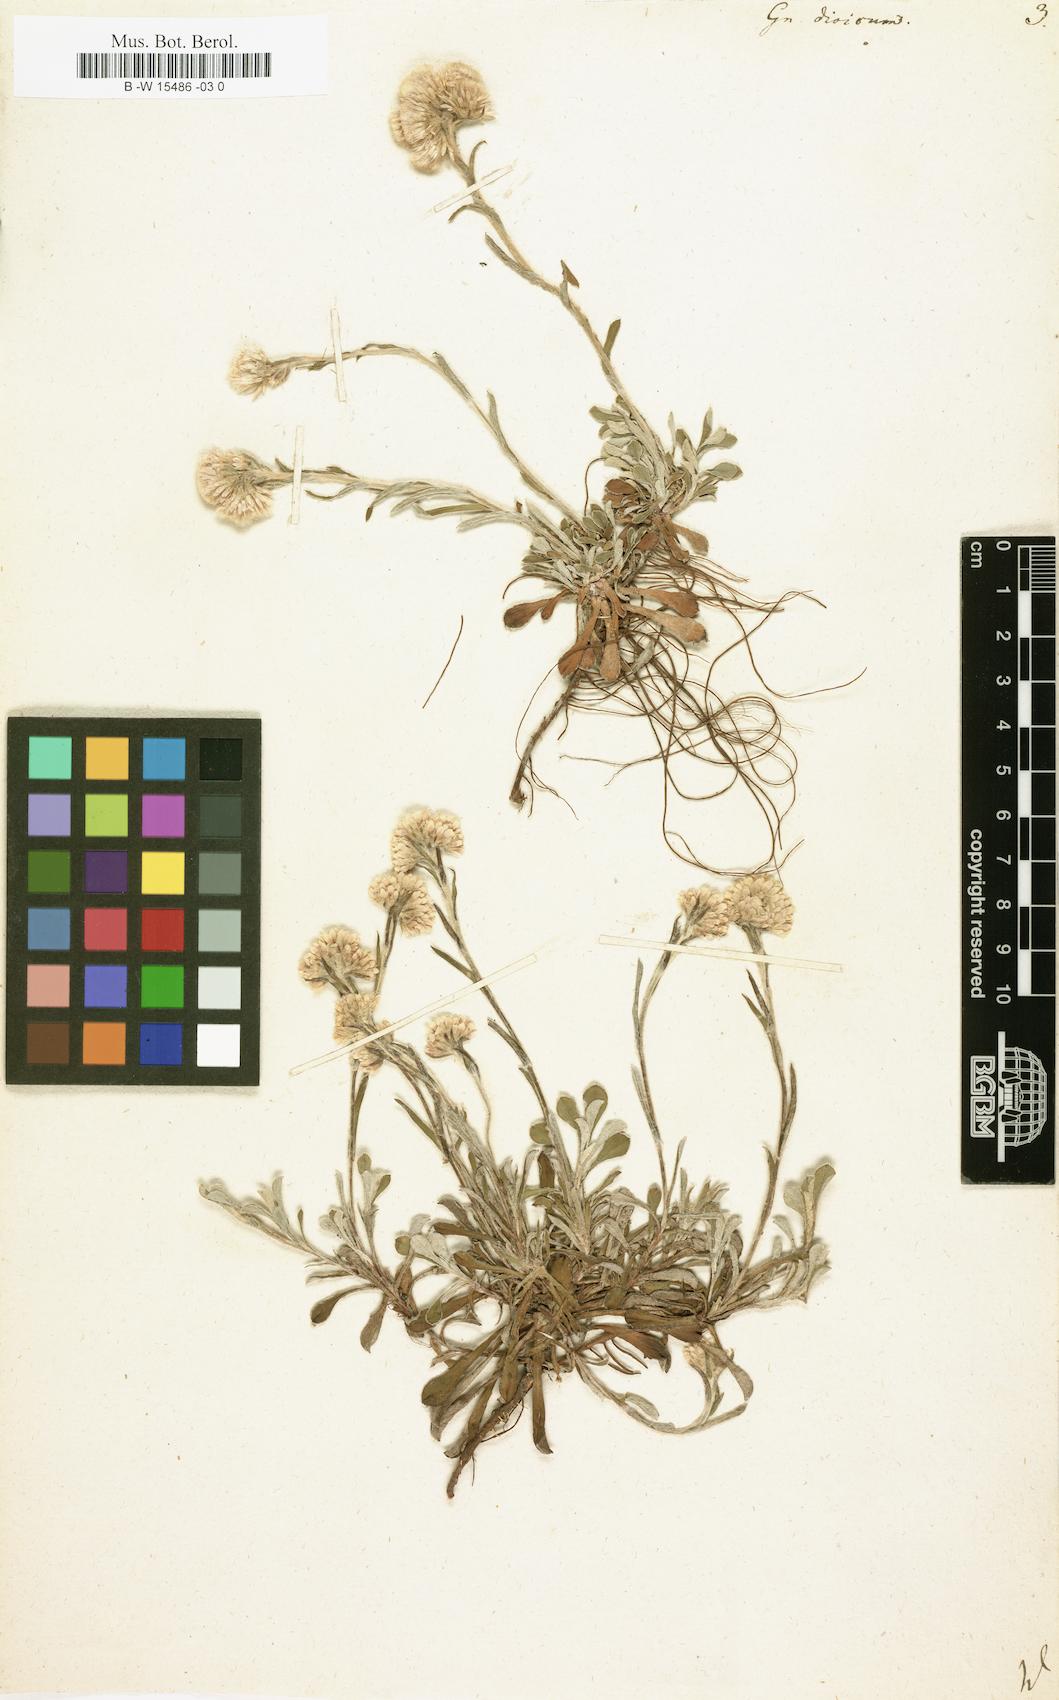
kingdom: Plantae
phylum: Tracheophyta
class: Magnoliopsida
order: Asterales
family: Asteraceae
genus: Antennaria
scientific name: Antennaria dioica
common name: Mountain everlasting
